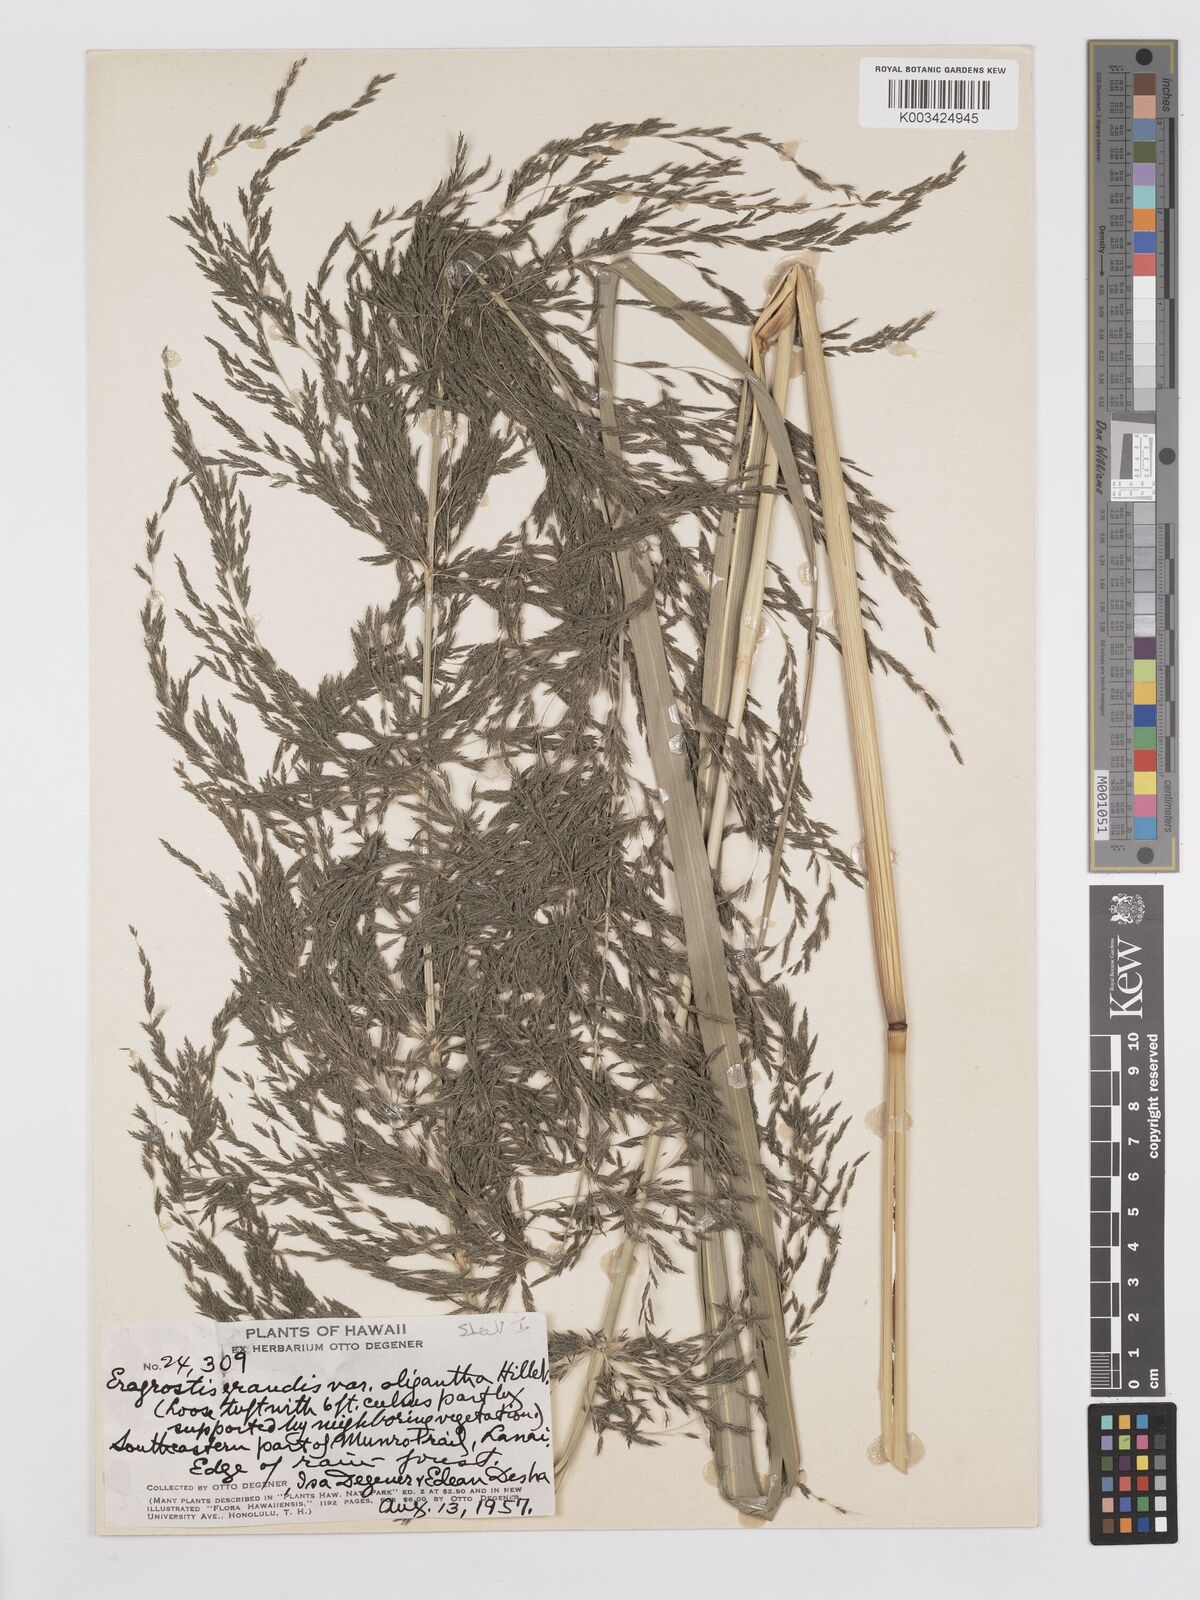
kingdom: Plantae
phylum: Tracheophyta
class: Liliopsida
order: Poales
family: Poaceae
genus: Eragrostis
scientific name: Eragrostis grandis
